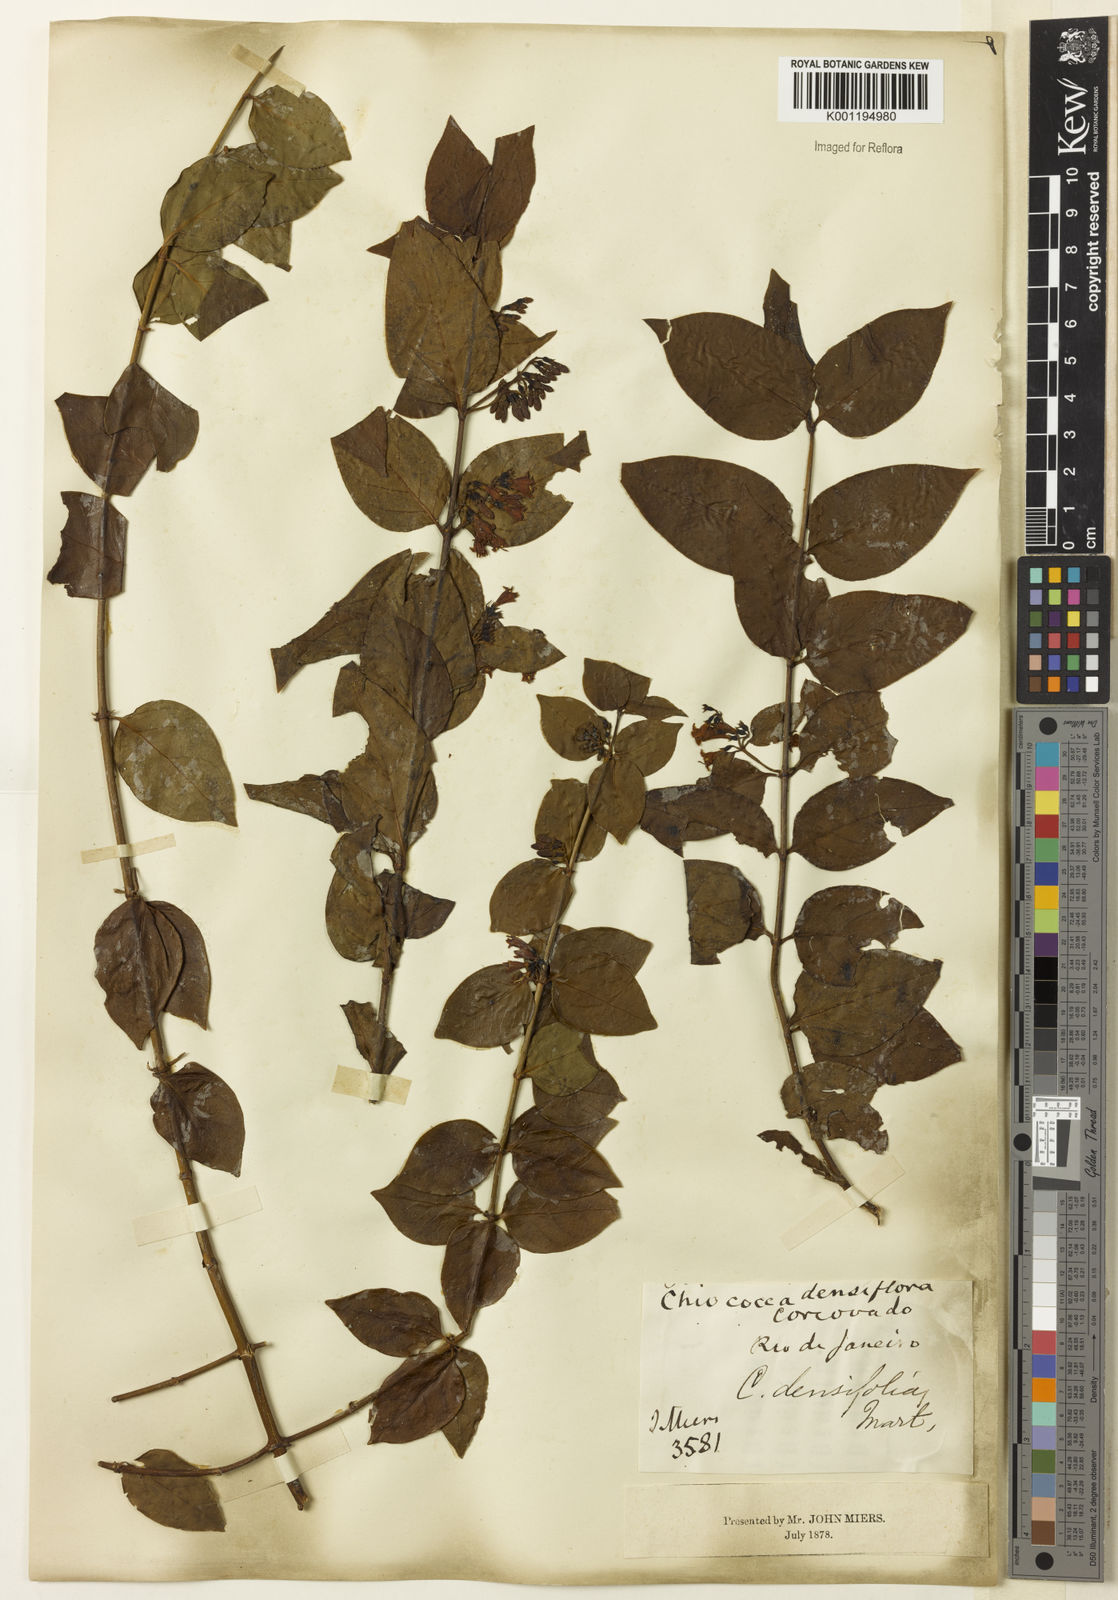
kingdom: Plantae
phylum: Tracheophyta
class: Magnoliopsida
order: Gentianales
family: Rubiaceae
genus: Chiococca
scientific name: Chiococca alba
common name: Snowberry
